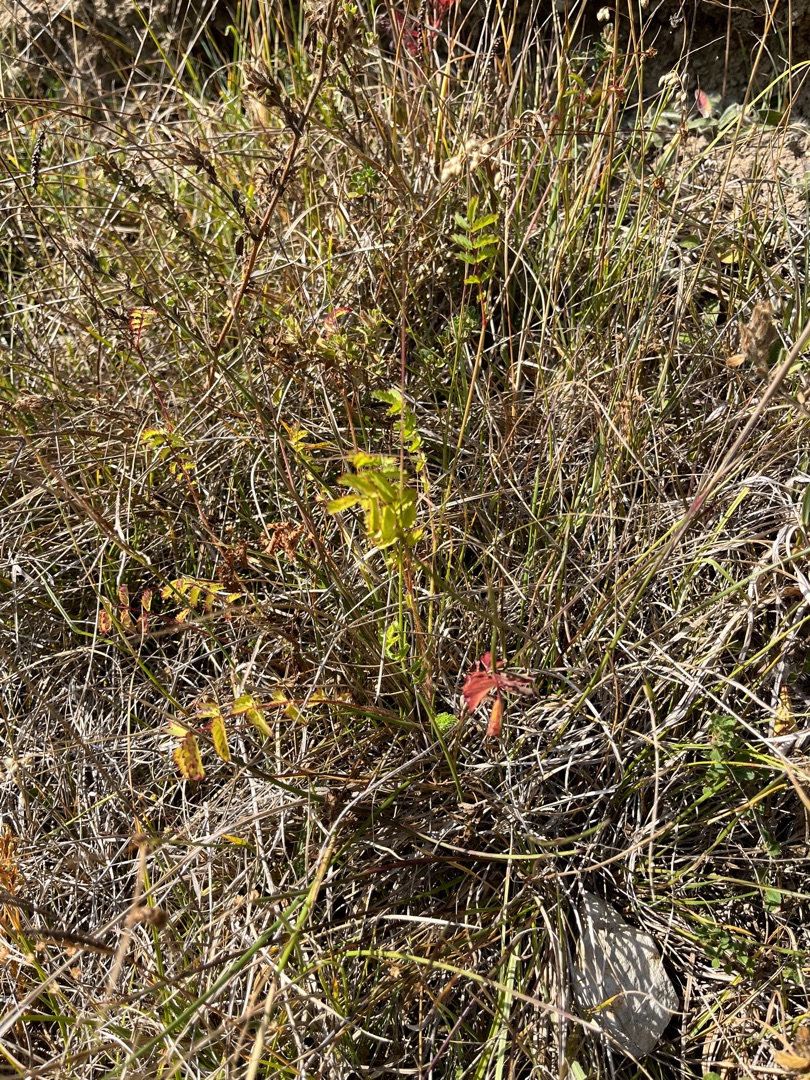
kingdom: Plantae
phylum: Tracheophyta
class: Magnoliopsida
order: Rosales
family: Rosaceae
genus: Poterium
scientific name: Poterium sanguisorba
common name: Bibernelle
